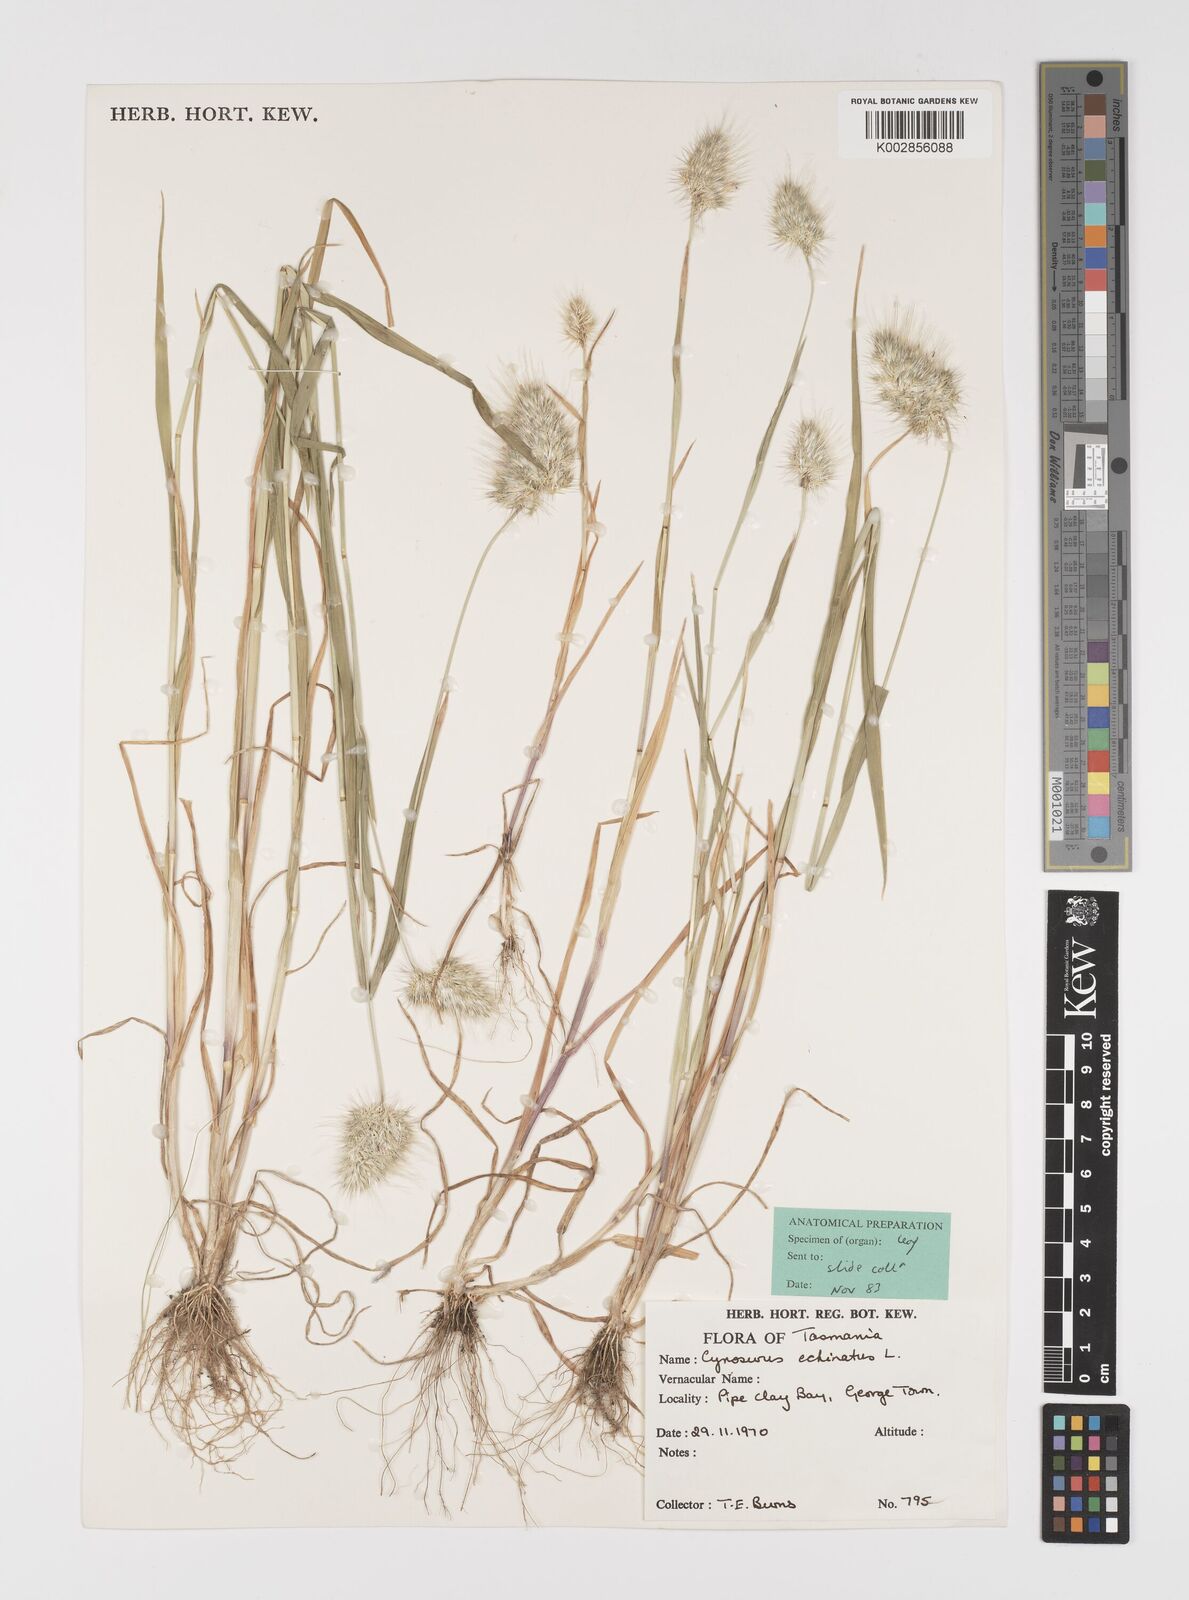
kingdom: Plantae
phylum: Tracheophyta
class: Liliopsida
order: Poales
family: Poaceae
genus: Cynosurus
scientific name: Cynosurus echinatus
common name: Rough dog's-tail
